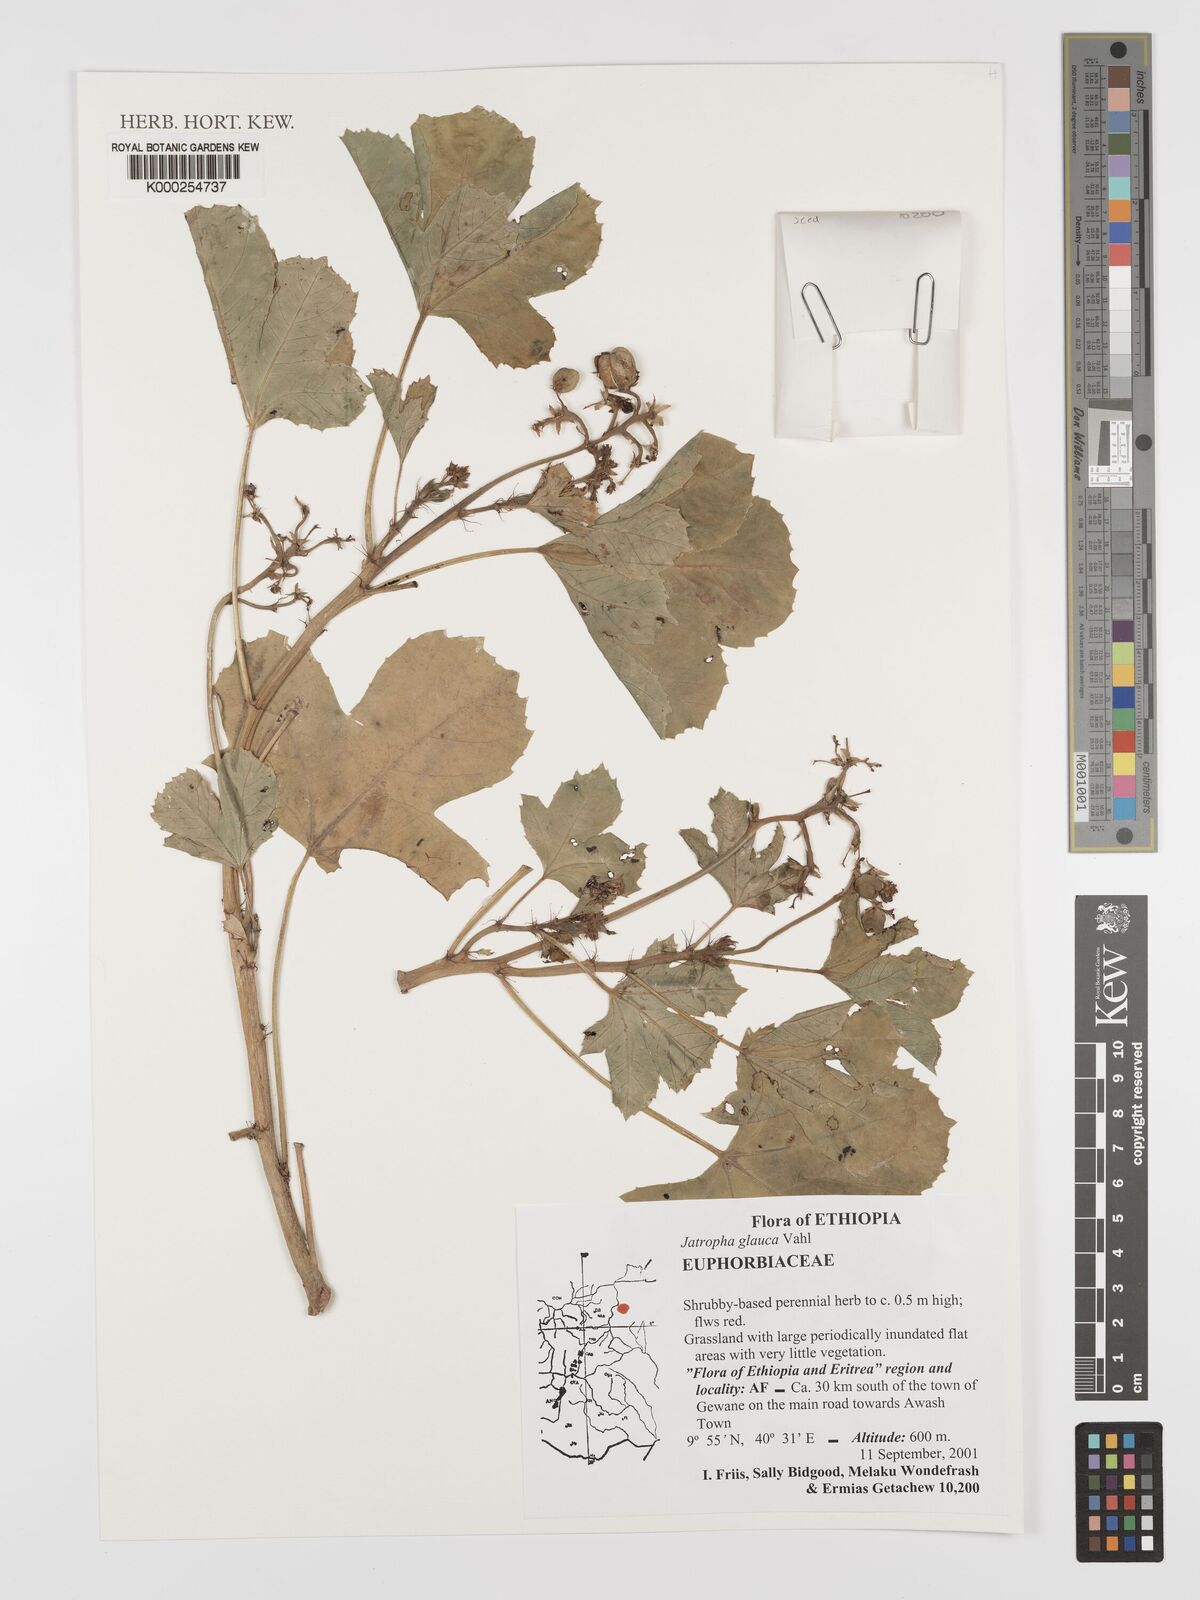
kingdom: Plantae
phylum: Tracheophyta
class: Magnoliopsida
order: Malpighiales
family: Euphorbiaceae
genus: Jatropha
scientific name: Jatropha glauca
